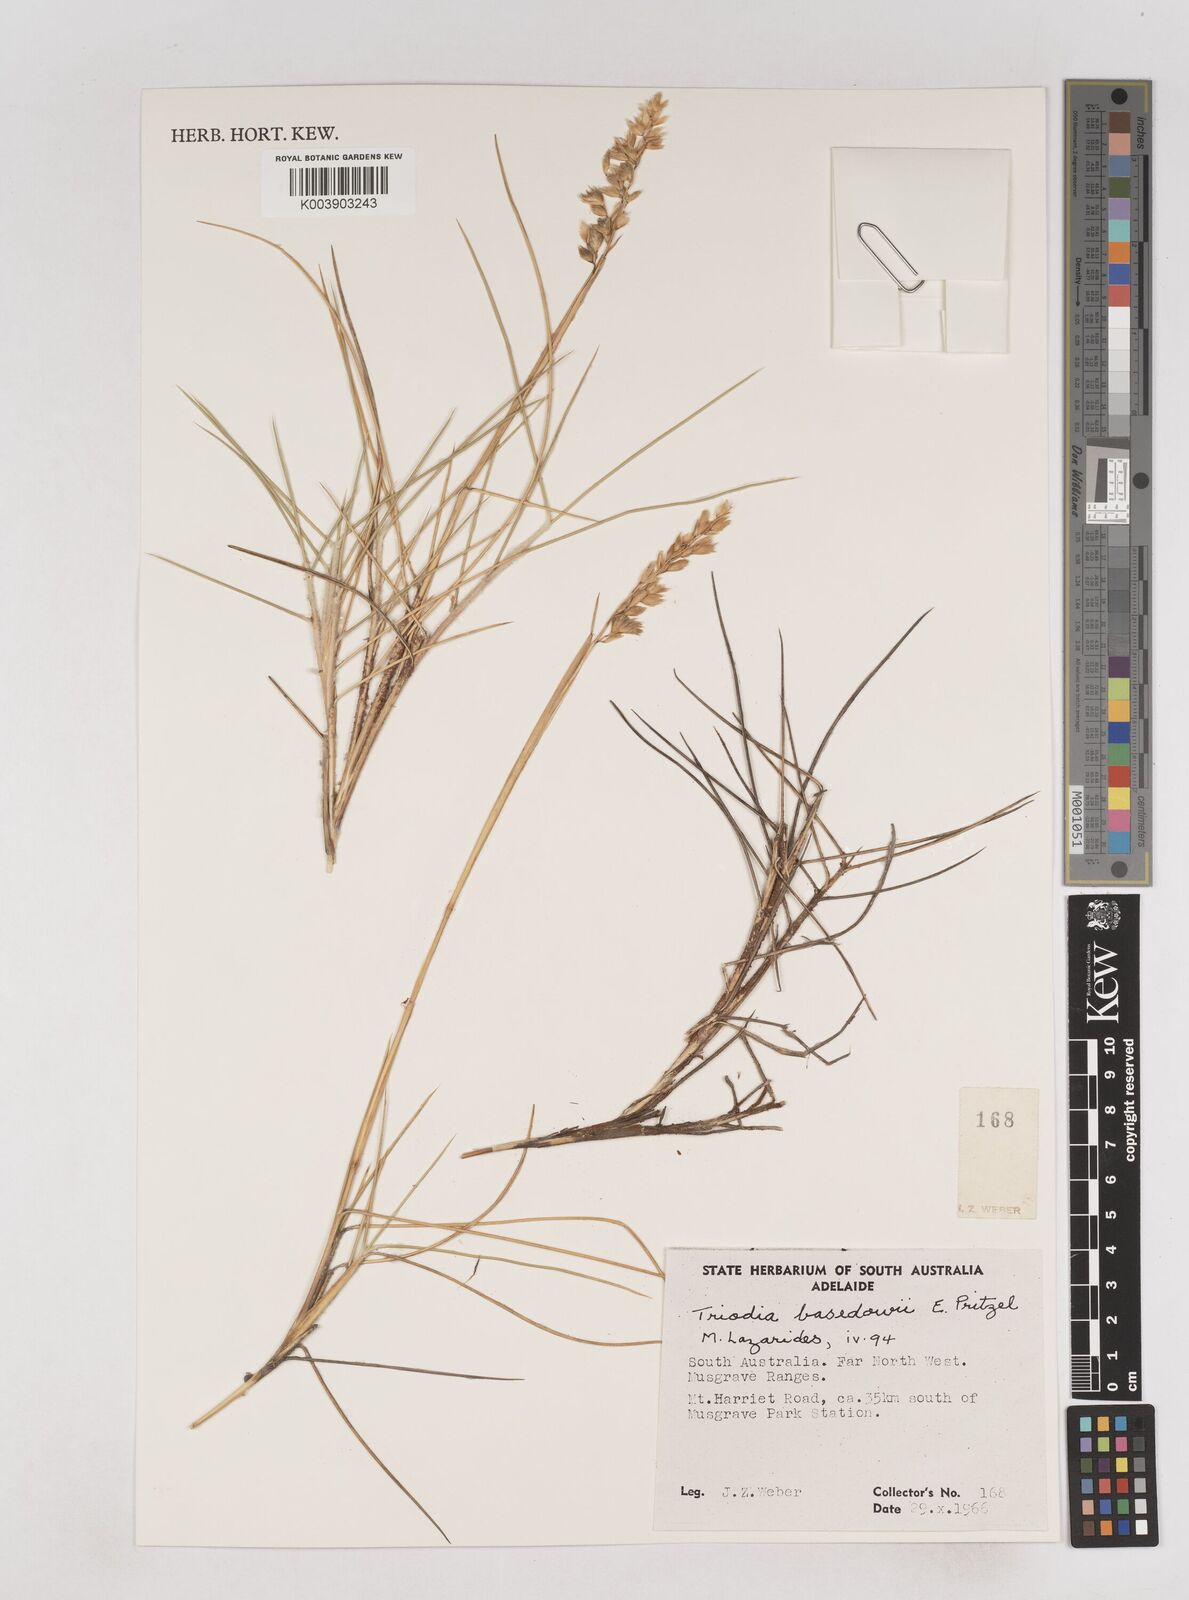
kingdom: Plantae
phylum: Tracheophyta
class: Liliopsida
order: Poales
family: Poaceae
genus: Triodia
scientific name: Triodia basedowii
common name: Hard spinifex
